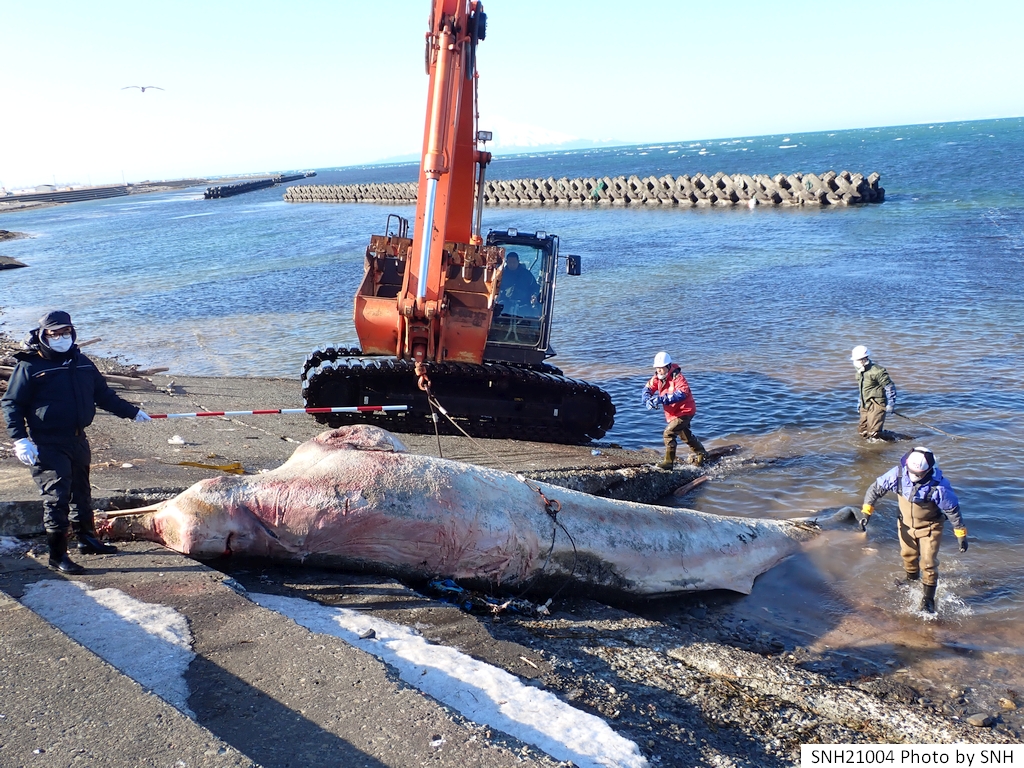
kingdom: Animalia
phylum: Chordata
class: Mammalia
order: Cetacea
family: Hyperoodontidae
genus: Berardius
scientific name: Berardius bairdii
